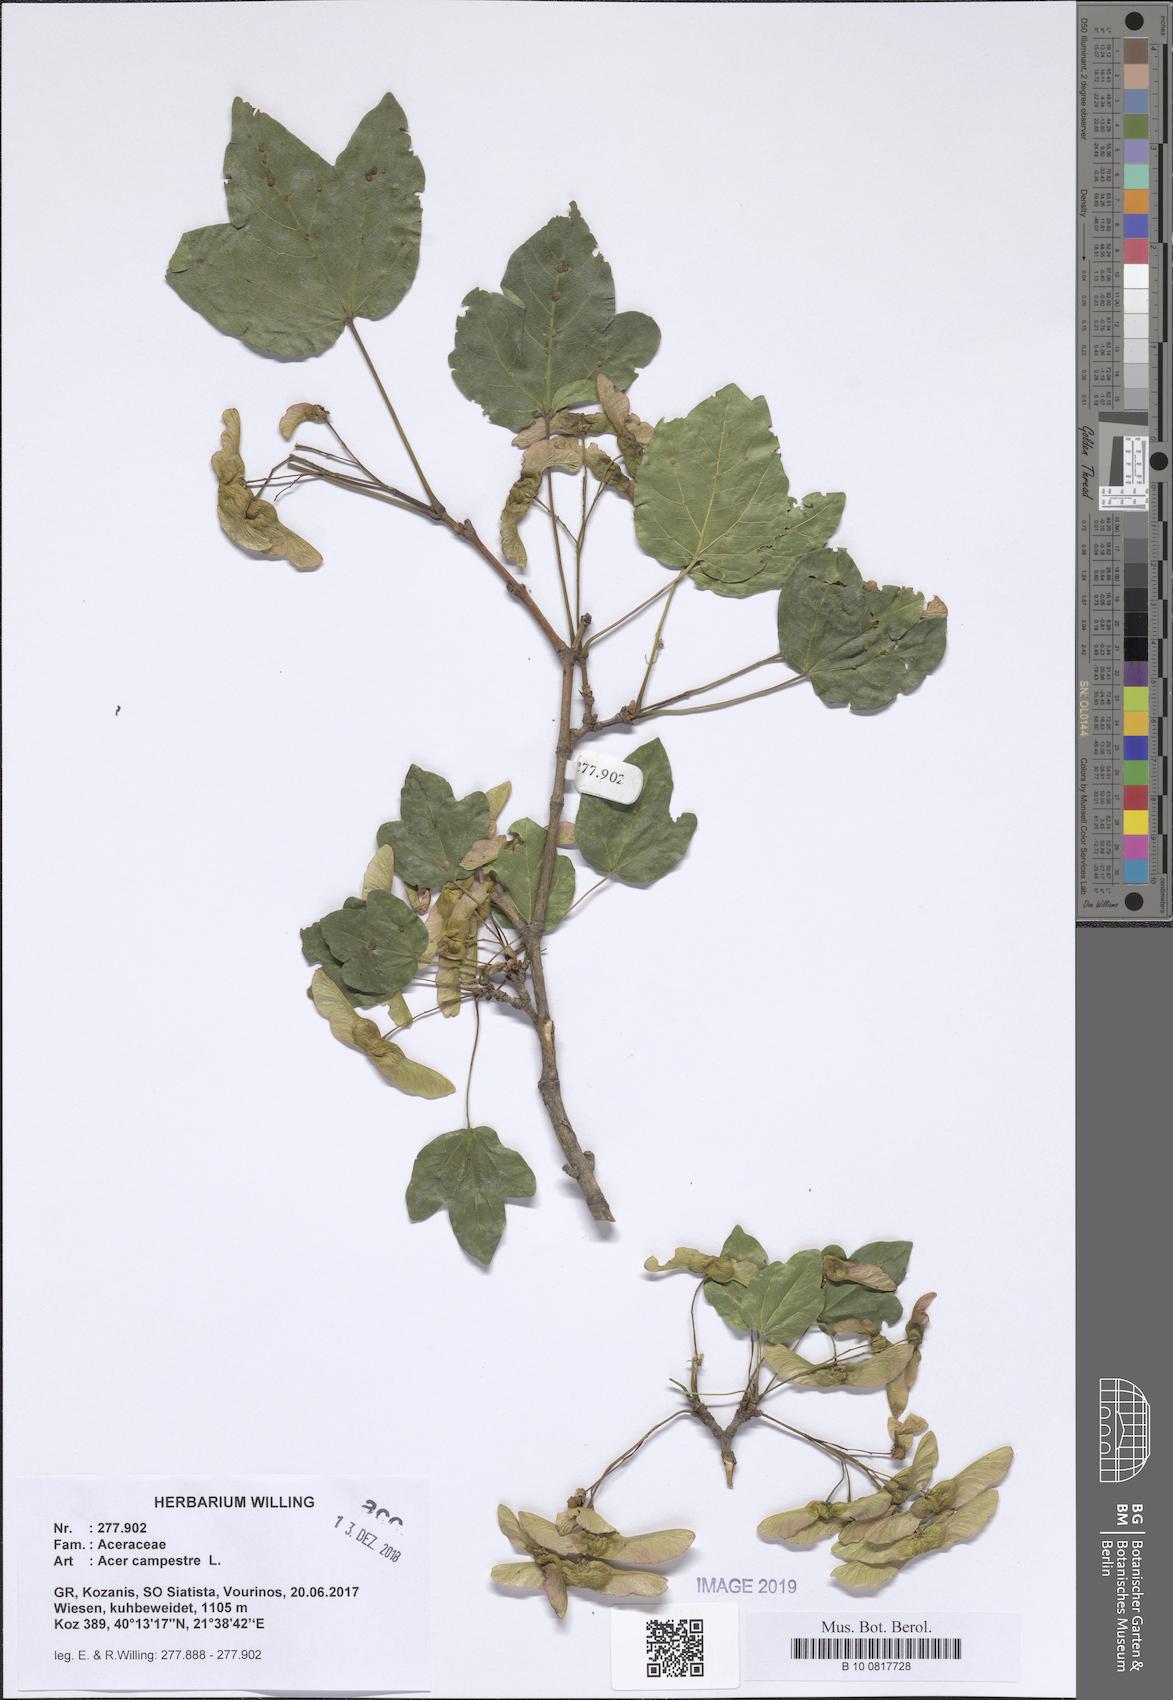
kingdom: Plantae
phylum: Tracheophyta
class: Magnoliopsida
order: Sapindales
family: Sapindaceae
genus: Acer
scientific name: Acer campestre
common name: Field maple
